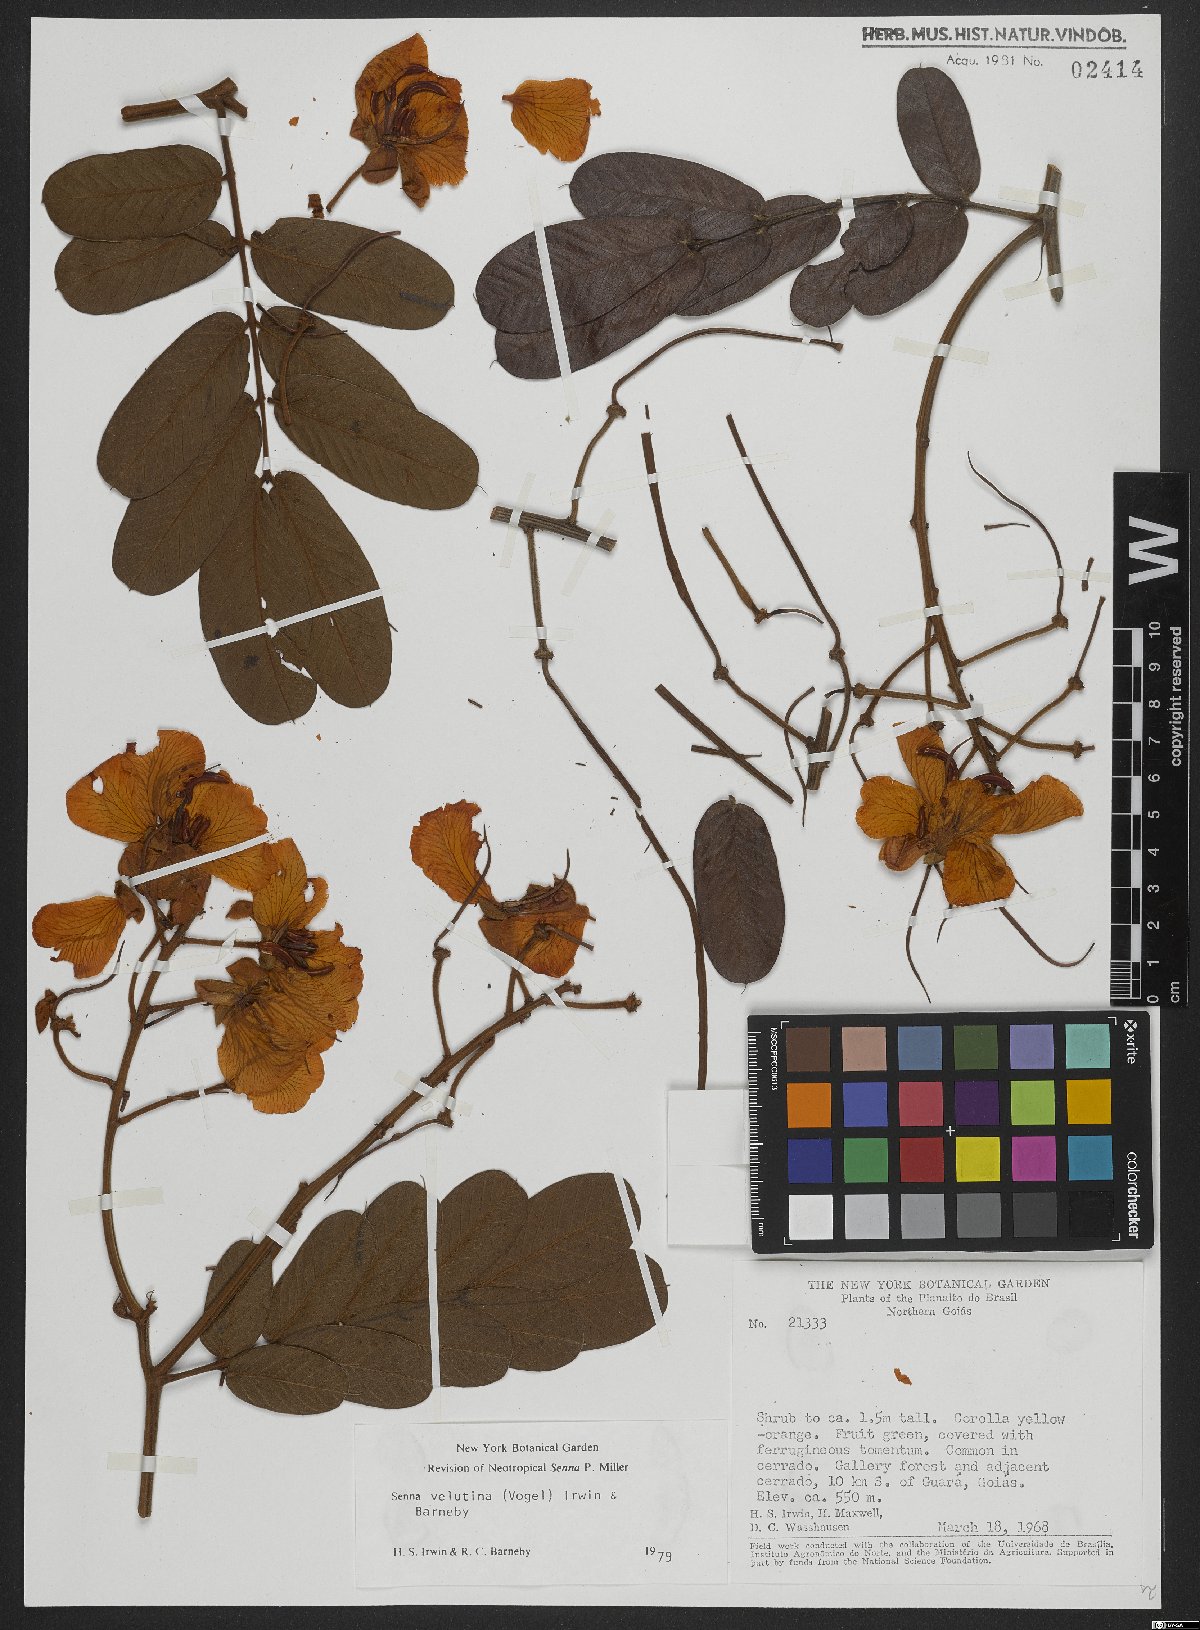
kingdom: Plantae
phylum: Tracheophyta
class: Magnoliopsida
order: Fabales
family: Fabaceae
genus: Senna
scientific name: Senna velutina
